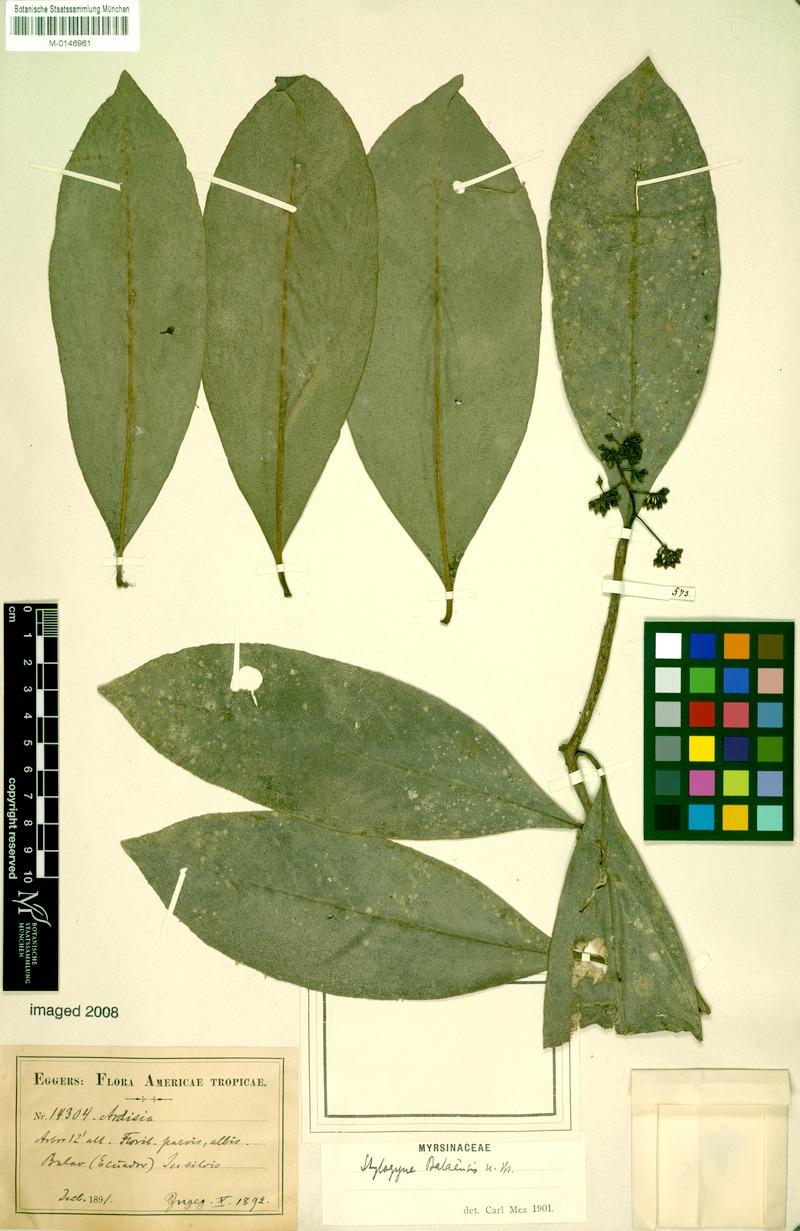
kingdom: Plantae
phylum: Tracheophyta
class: Magnoliopsida
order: Ericales
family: Primulaceae
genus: Stylogyne
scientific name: Stylogyne turbacensis
